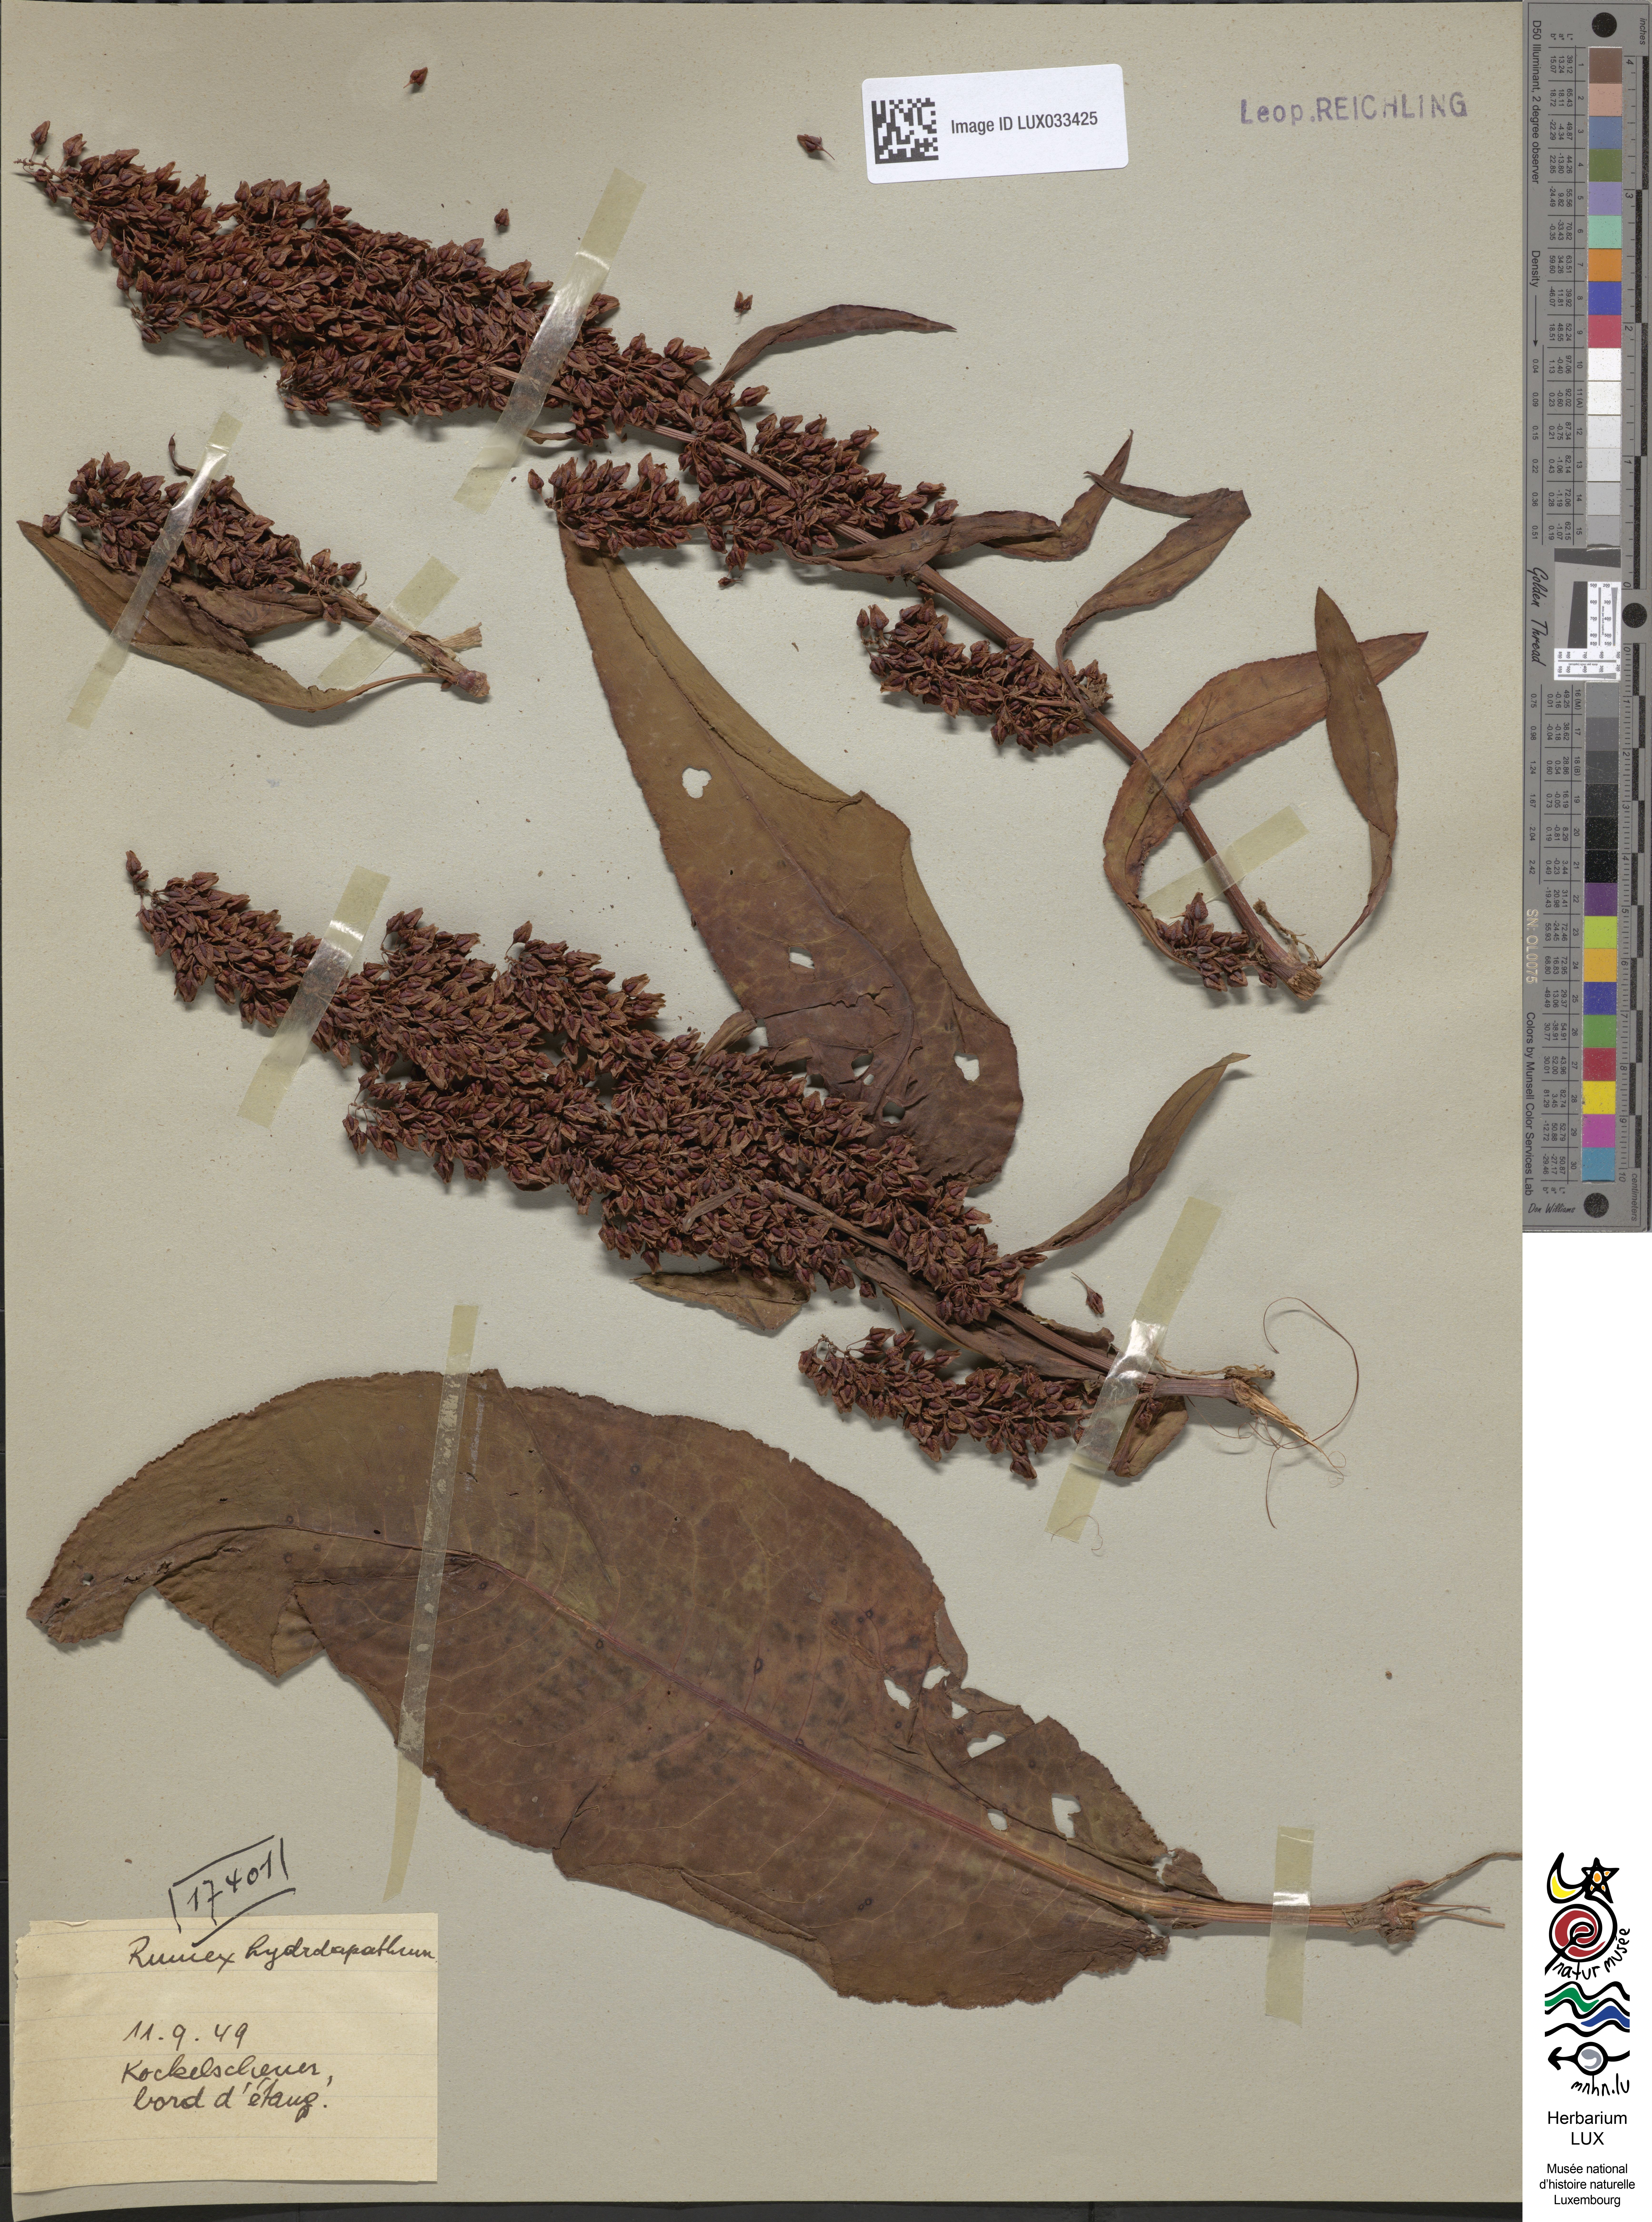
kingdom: Plantae
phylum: Tracheophyta
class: Magnoliopsida
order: Caryophyllales
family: Polygonaceae
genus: Rumex
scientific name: Rumex hydrolapathum
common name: Water dock
